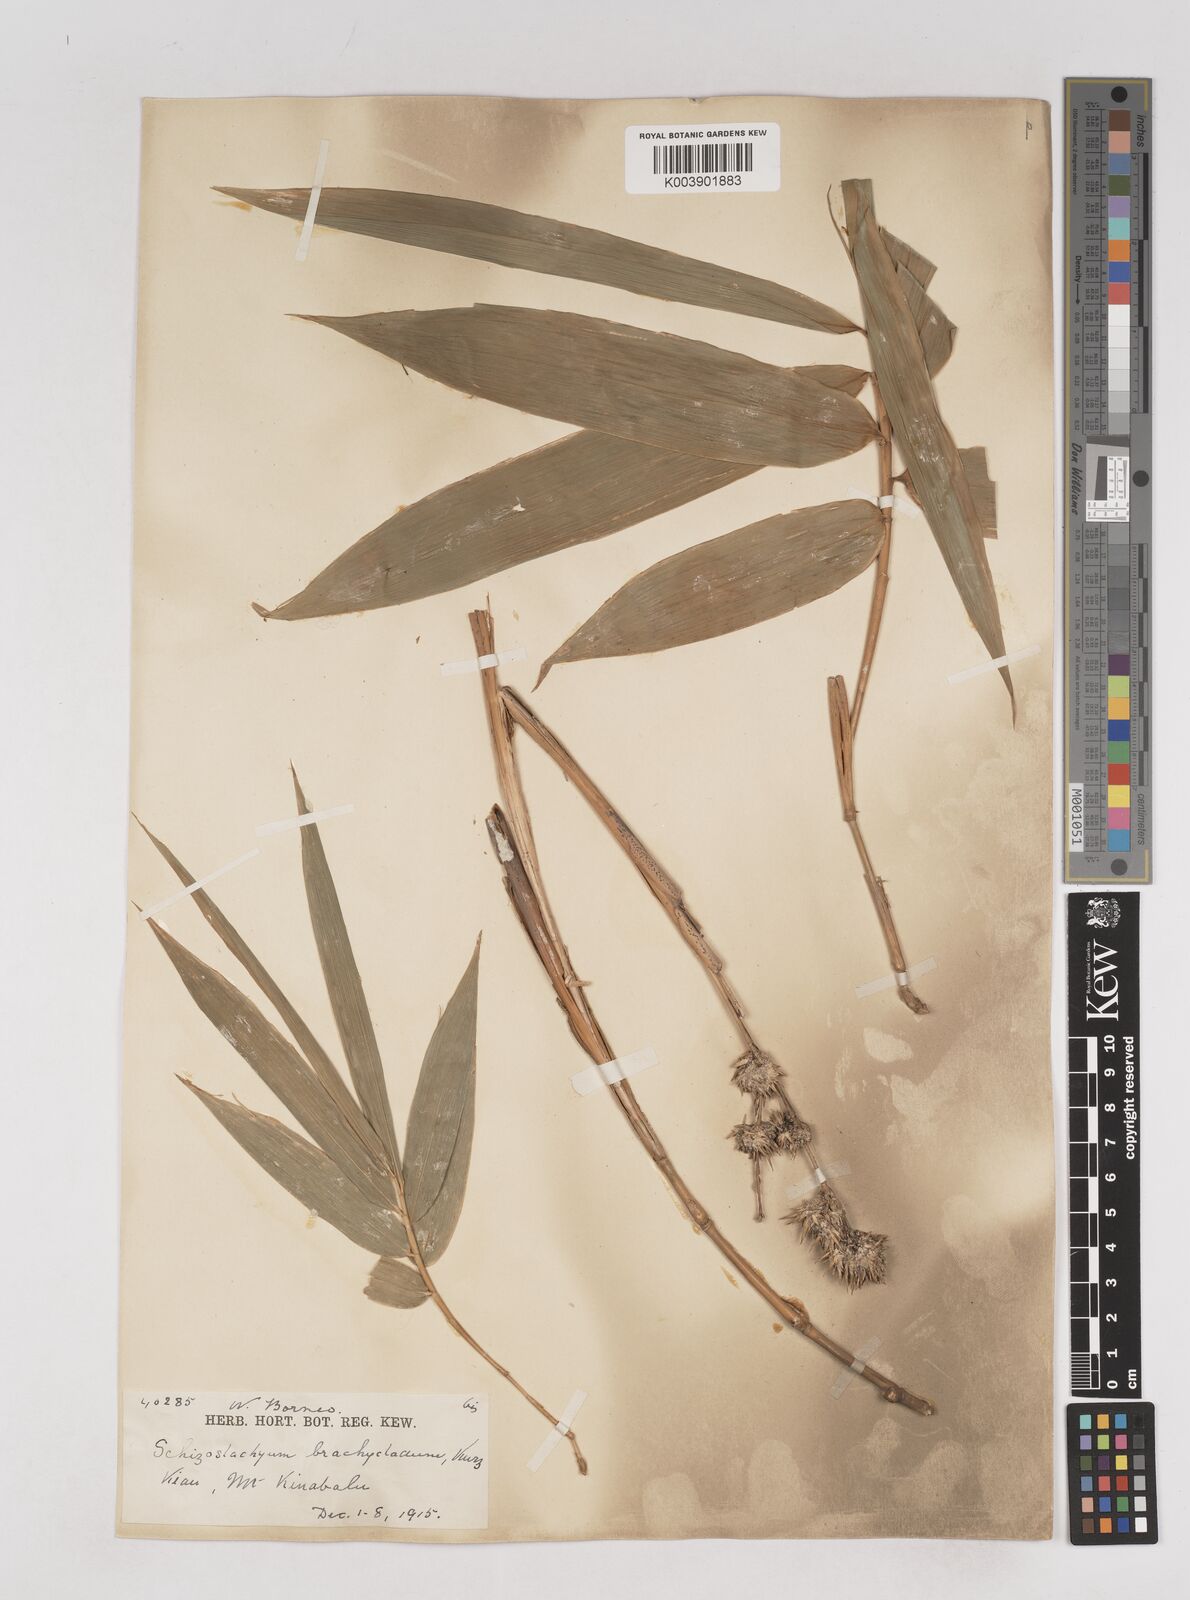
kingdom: Plantae
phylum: Tracheophyta
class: Liliopsida
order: Poales
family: Poaceae
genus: Schizostachyum
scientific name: Schizostachyum brachycladum
